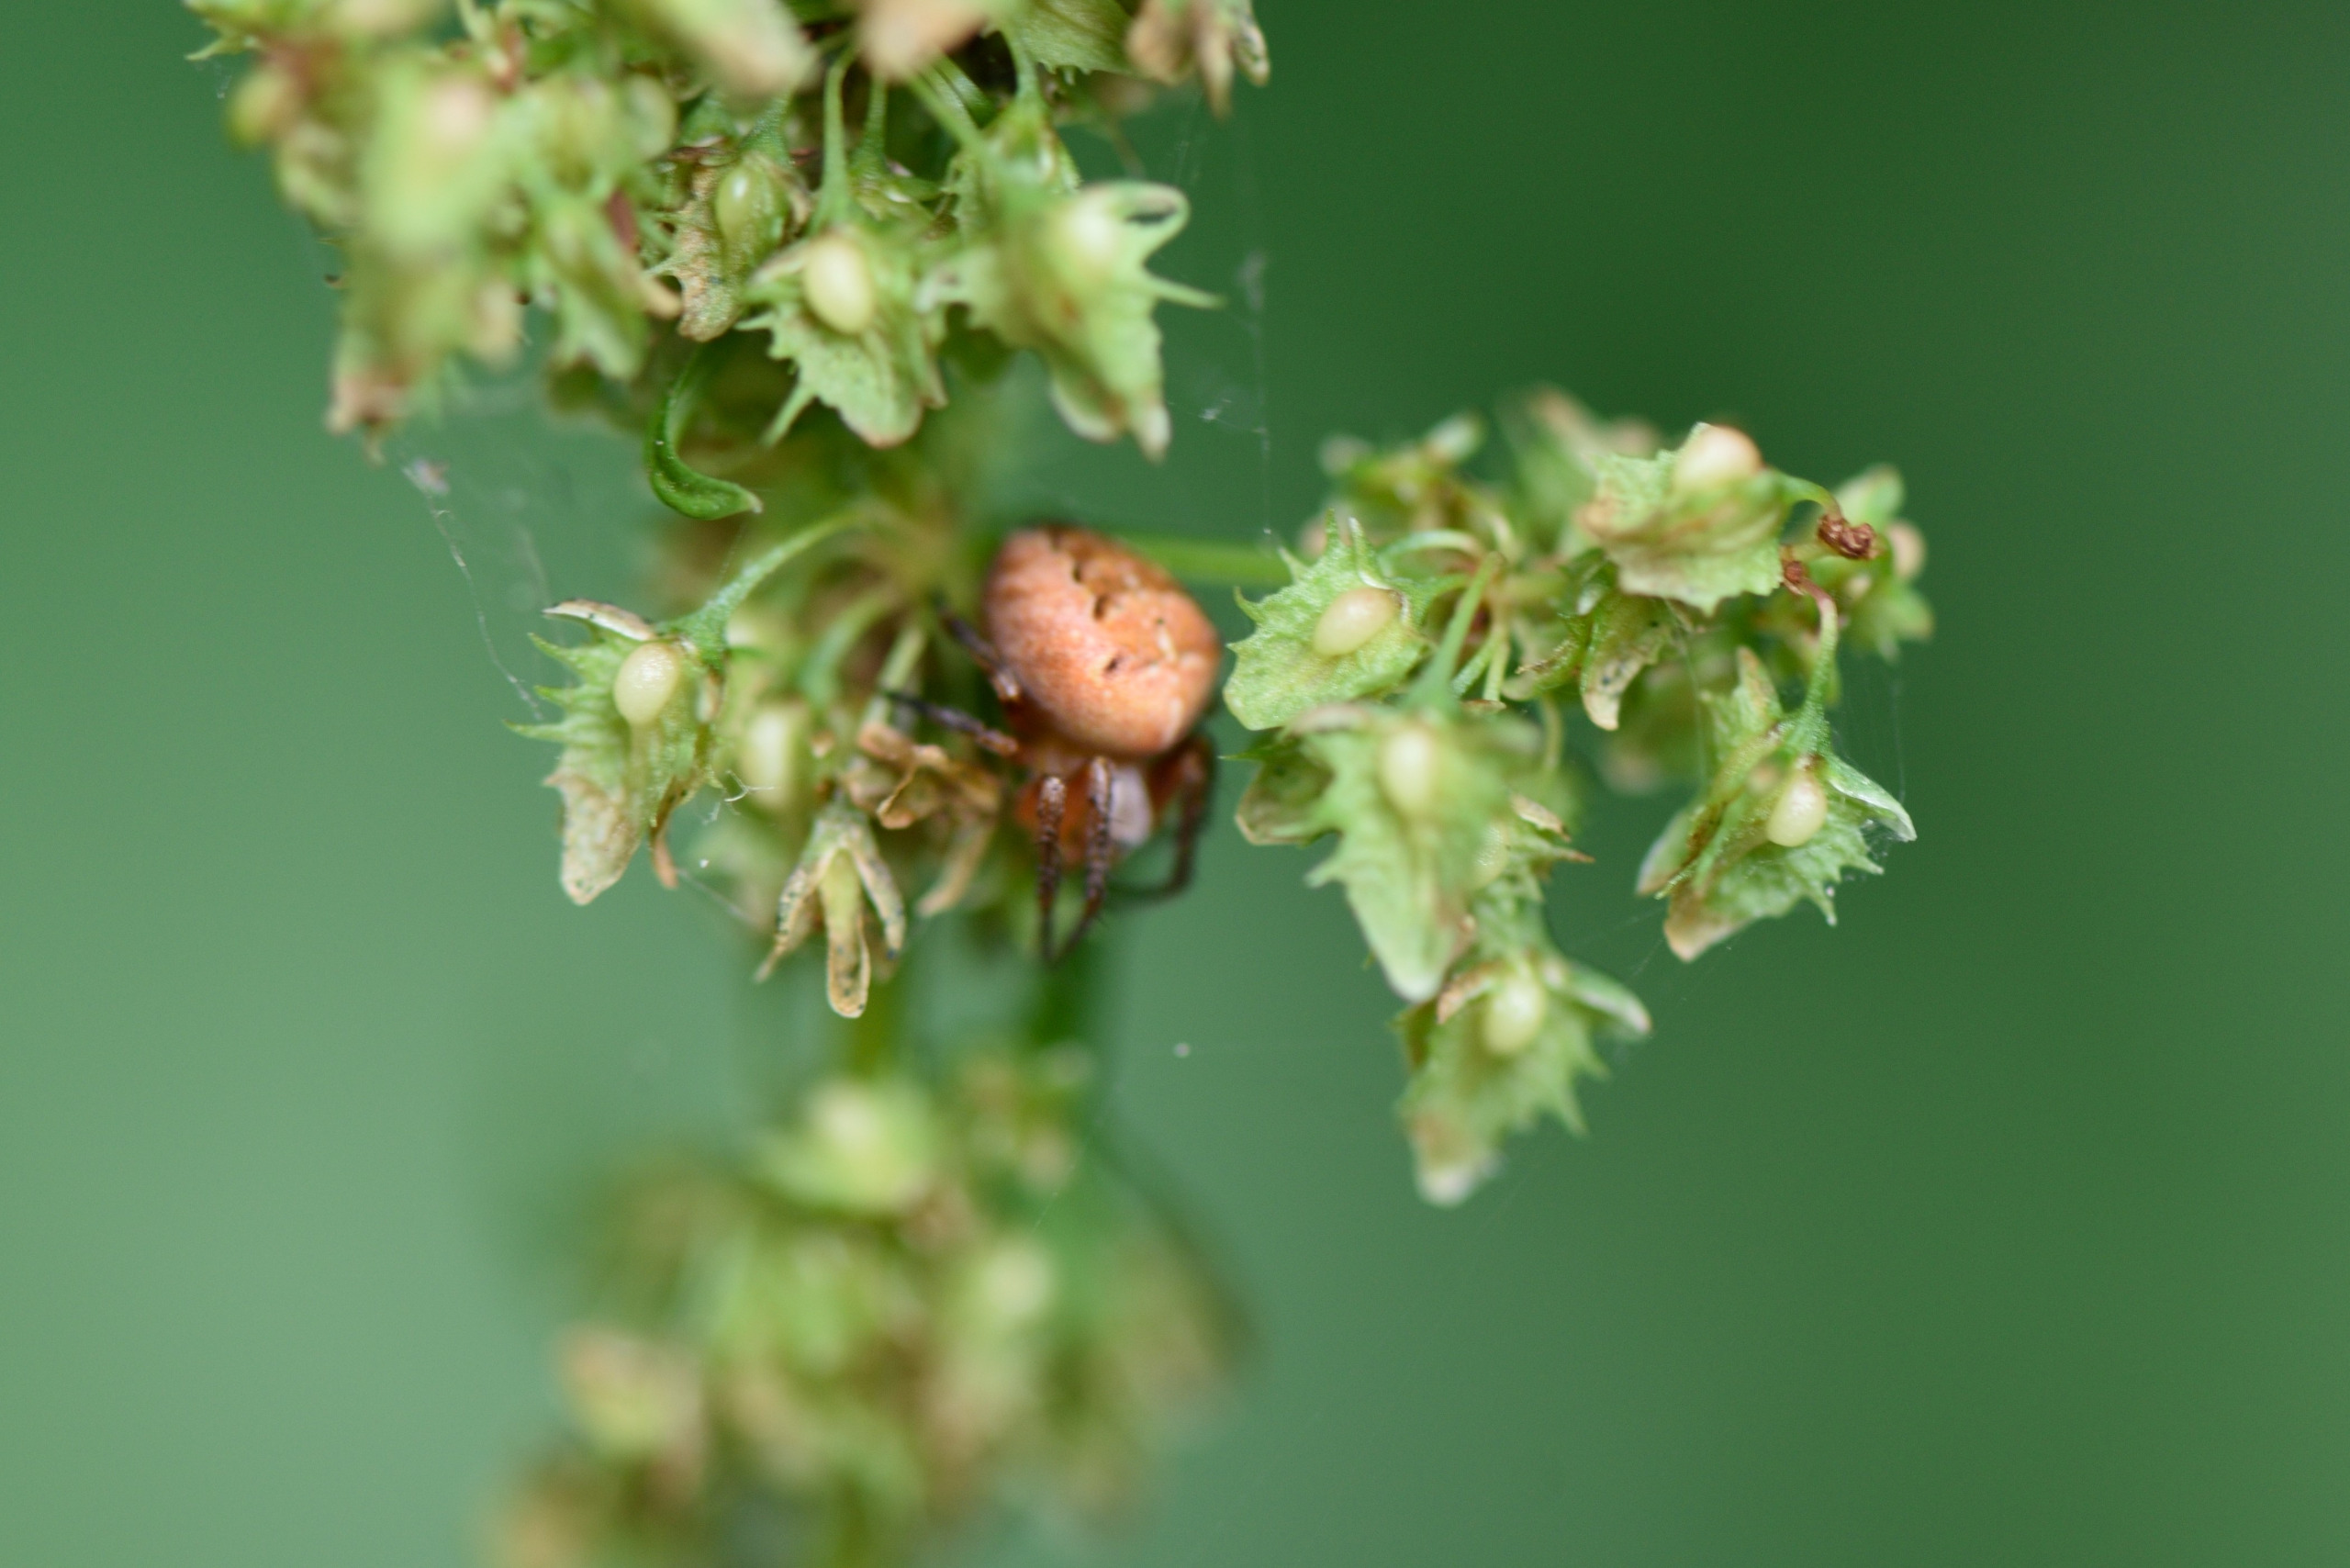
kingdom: Animalia
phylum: Arthropoda
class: Arachnida
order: Araneae
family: Araneidae
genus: Araneus
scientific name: Araneus diadematus
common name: Korsedderkop
